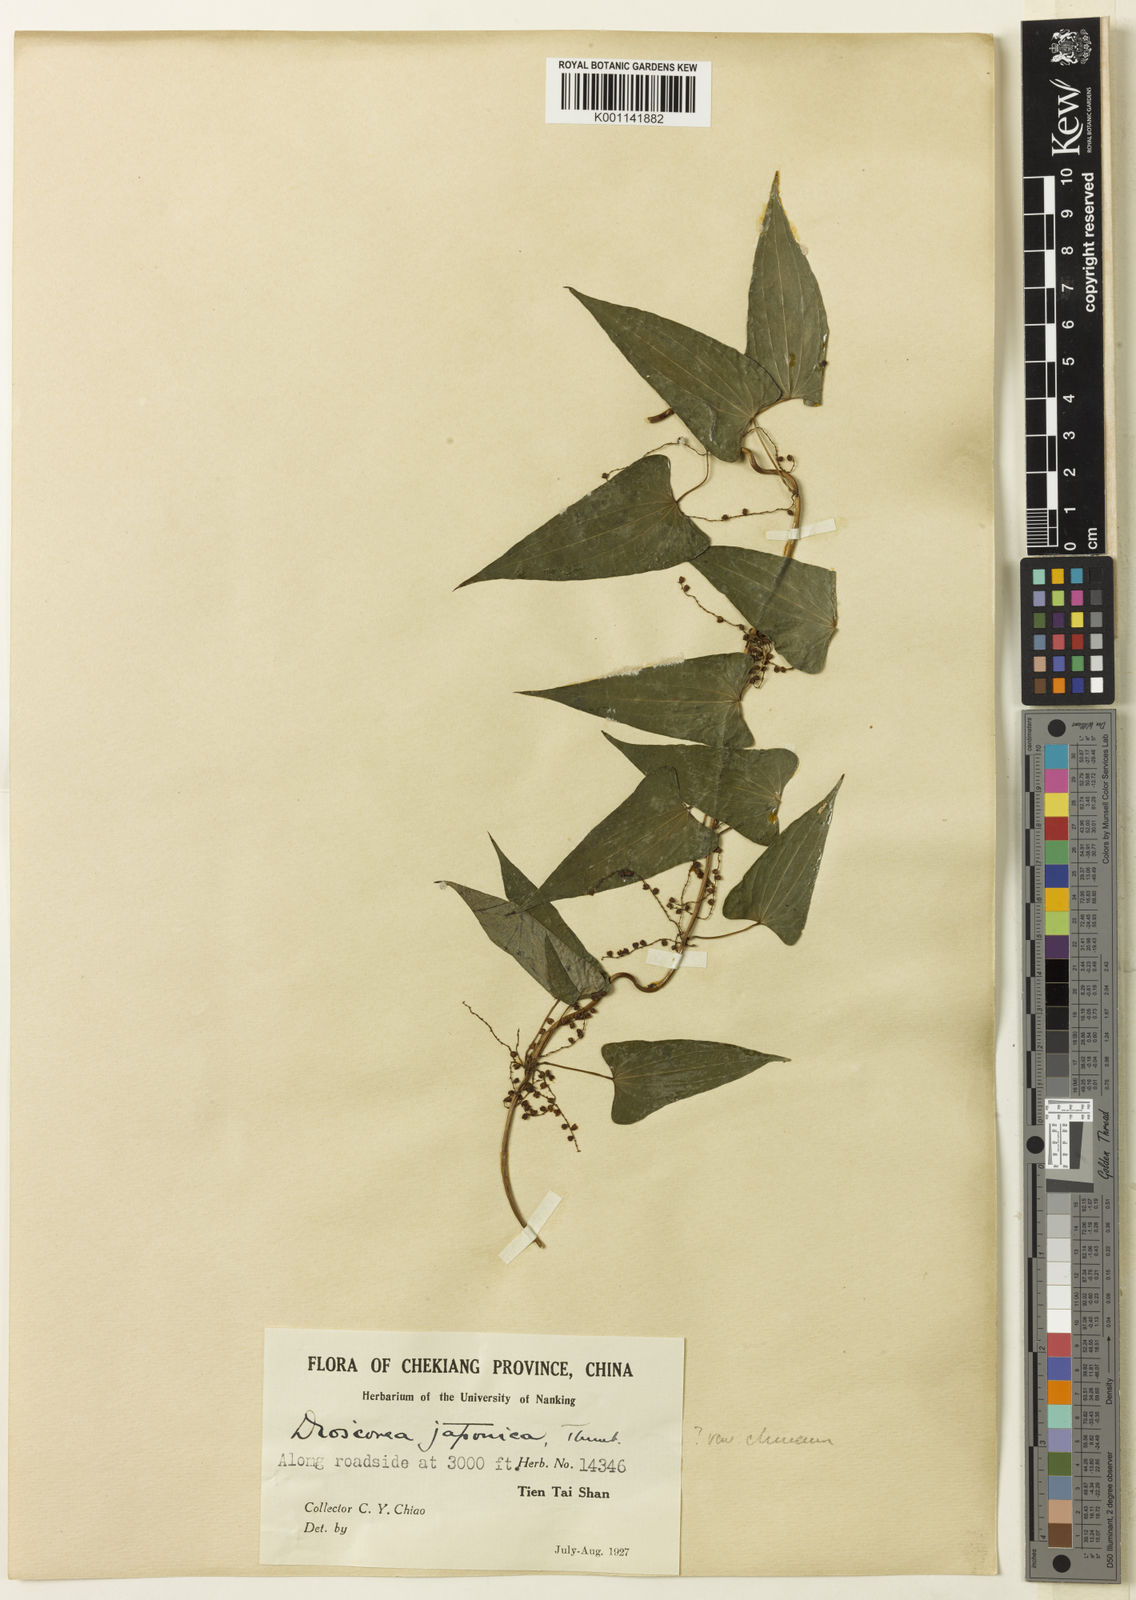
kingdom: Plantae
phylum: Tracheophyta
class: Liliopsida
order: Dioscoreales
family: Dioscoreaceae
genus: Dioscorea
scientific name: Dioscorea japonica
